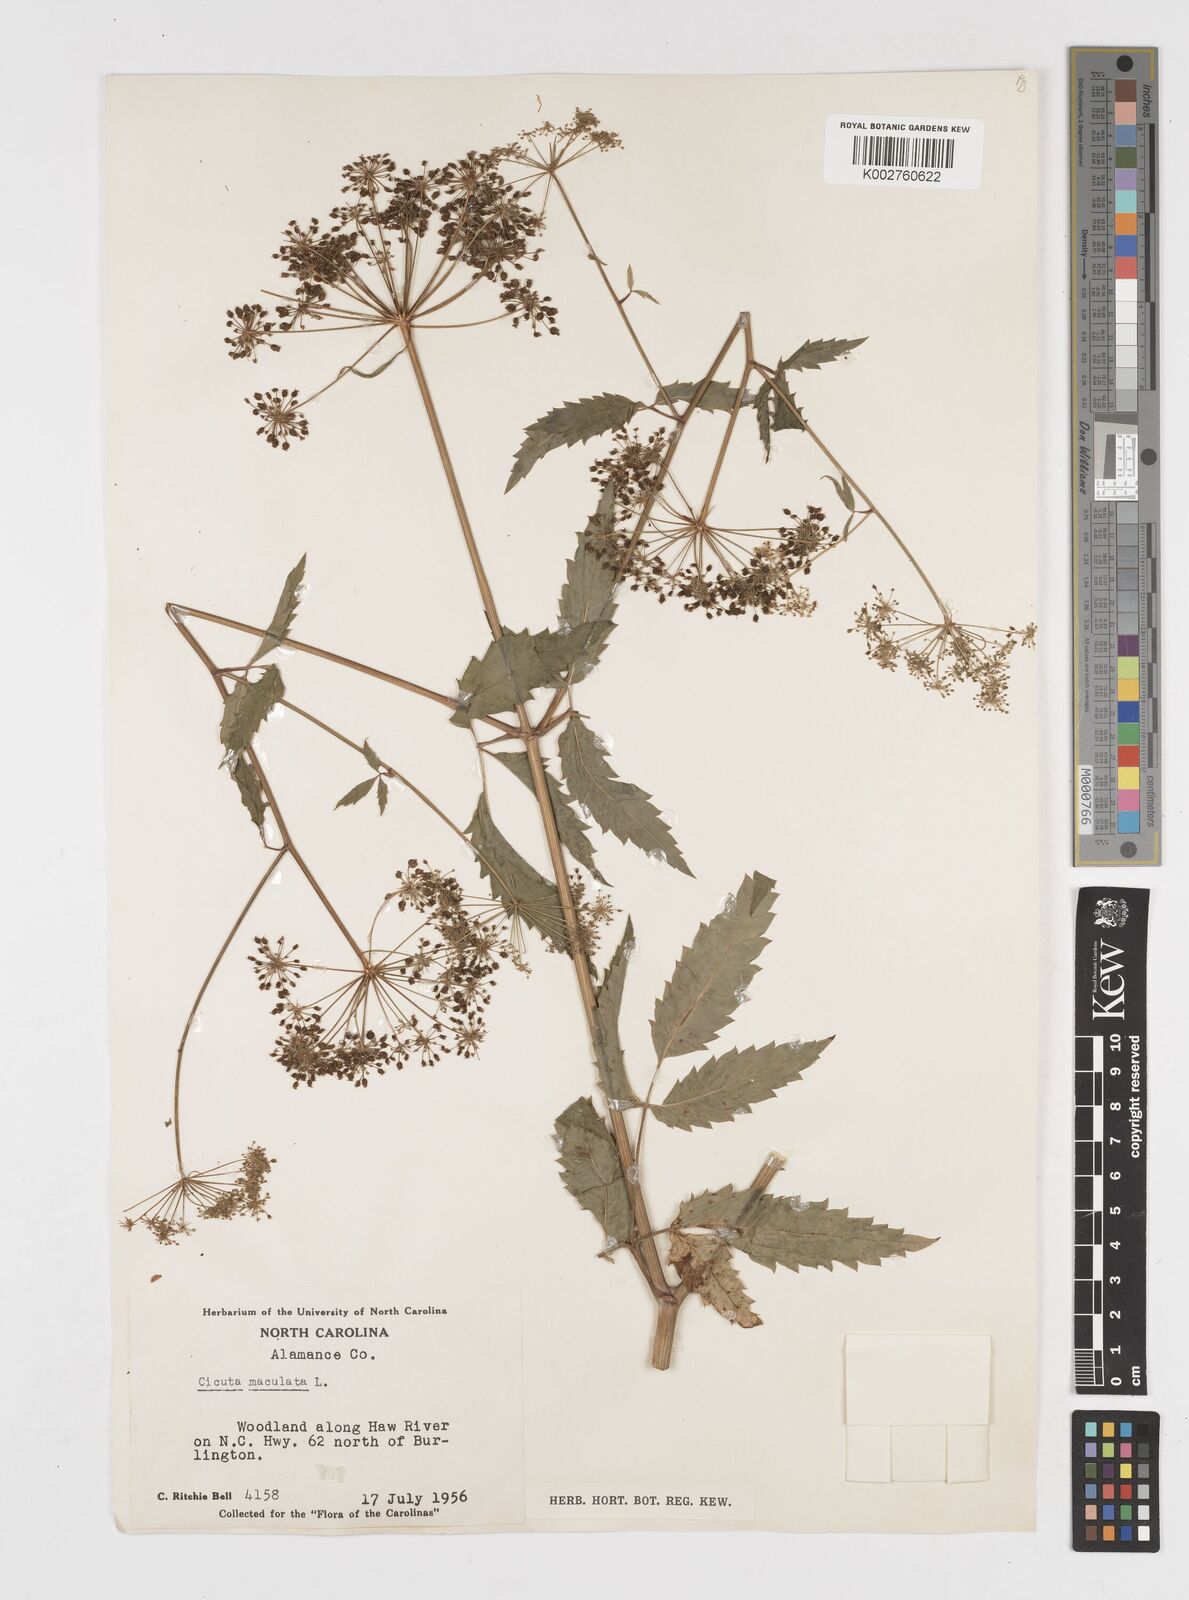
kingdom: Plantae
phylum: Tracheophyta
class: Magnoliopsida
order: Apiales
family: Apiaceae
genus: Cicuta
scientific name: Cicuta maculata
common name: Spotted cowbane
